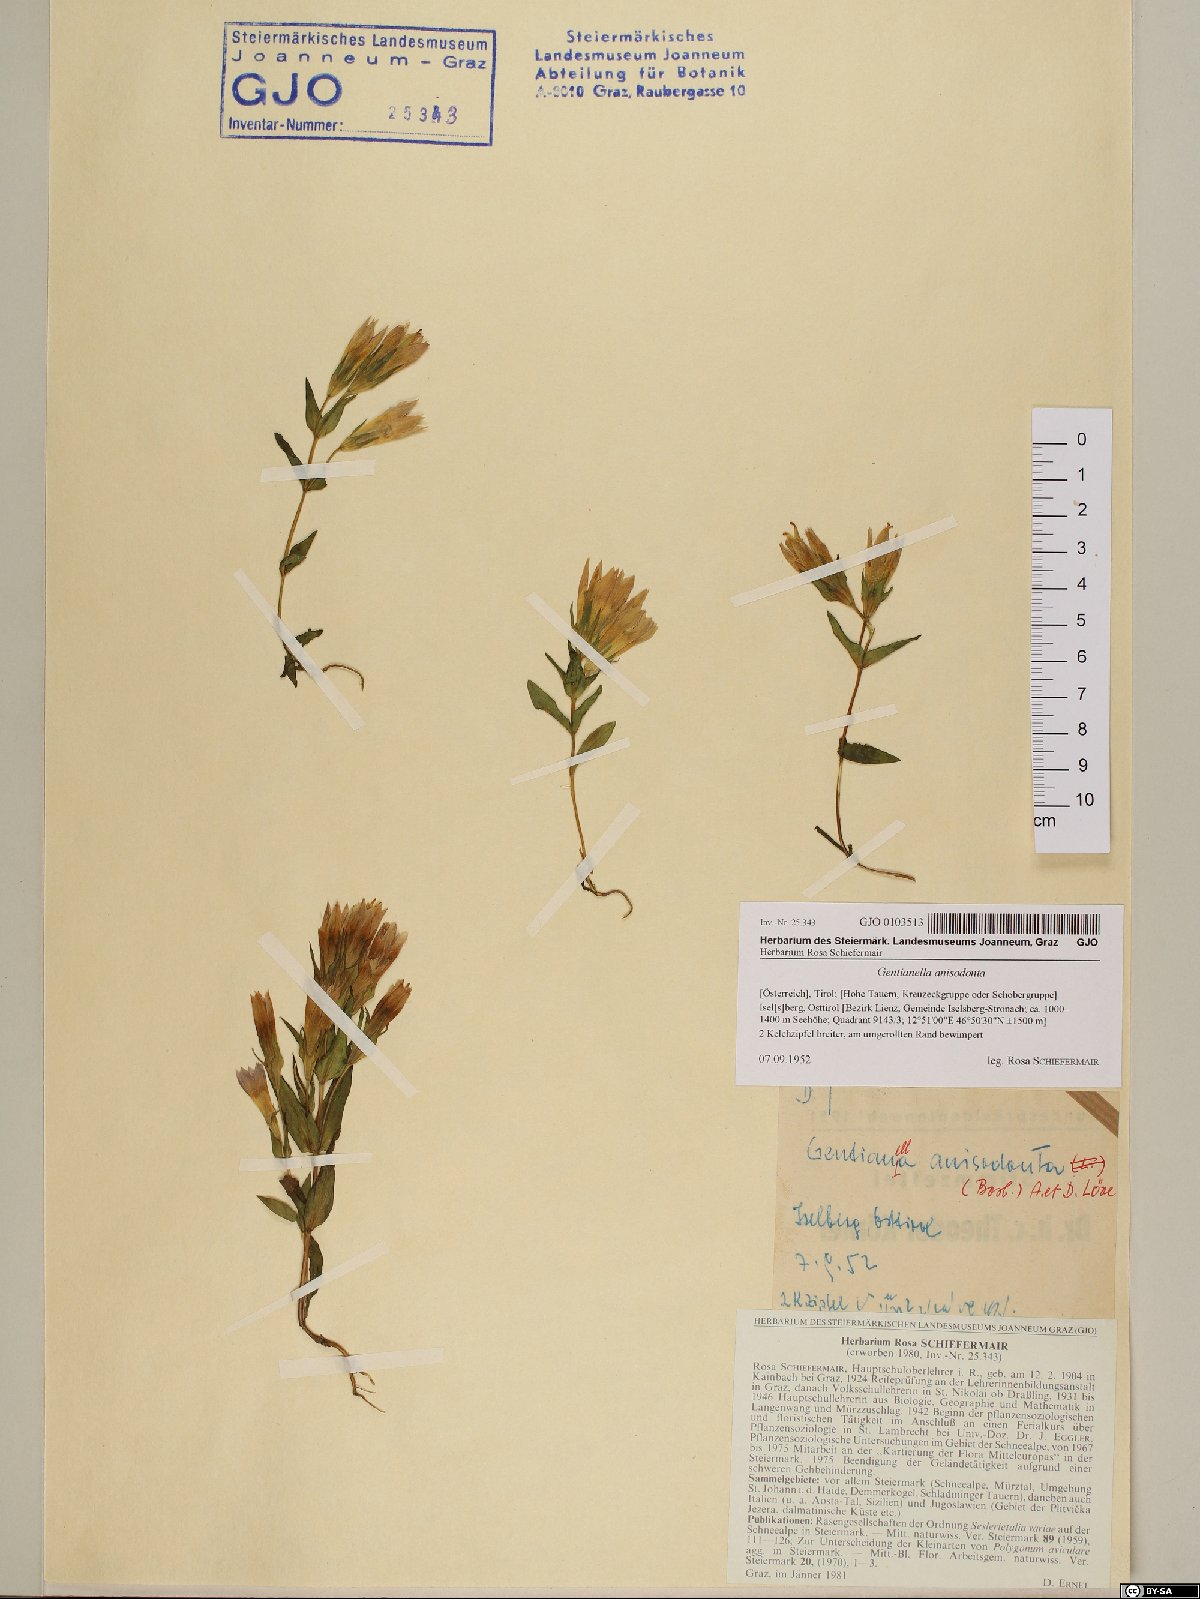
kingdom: Plantae
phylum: Tracheophyta
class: Magnoliopsida
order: Gentianales
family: Gentianaceae
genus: Gentianella
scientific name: Gentianella anisodonta
